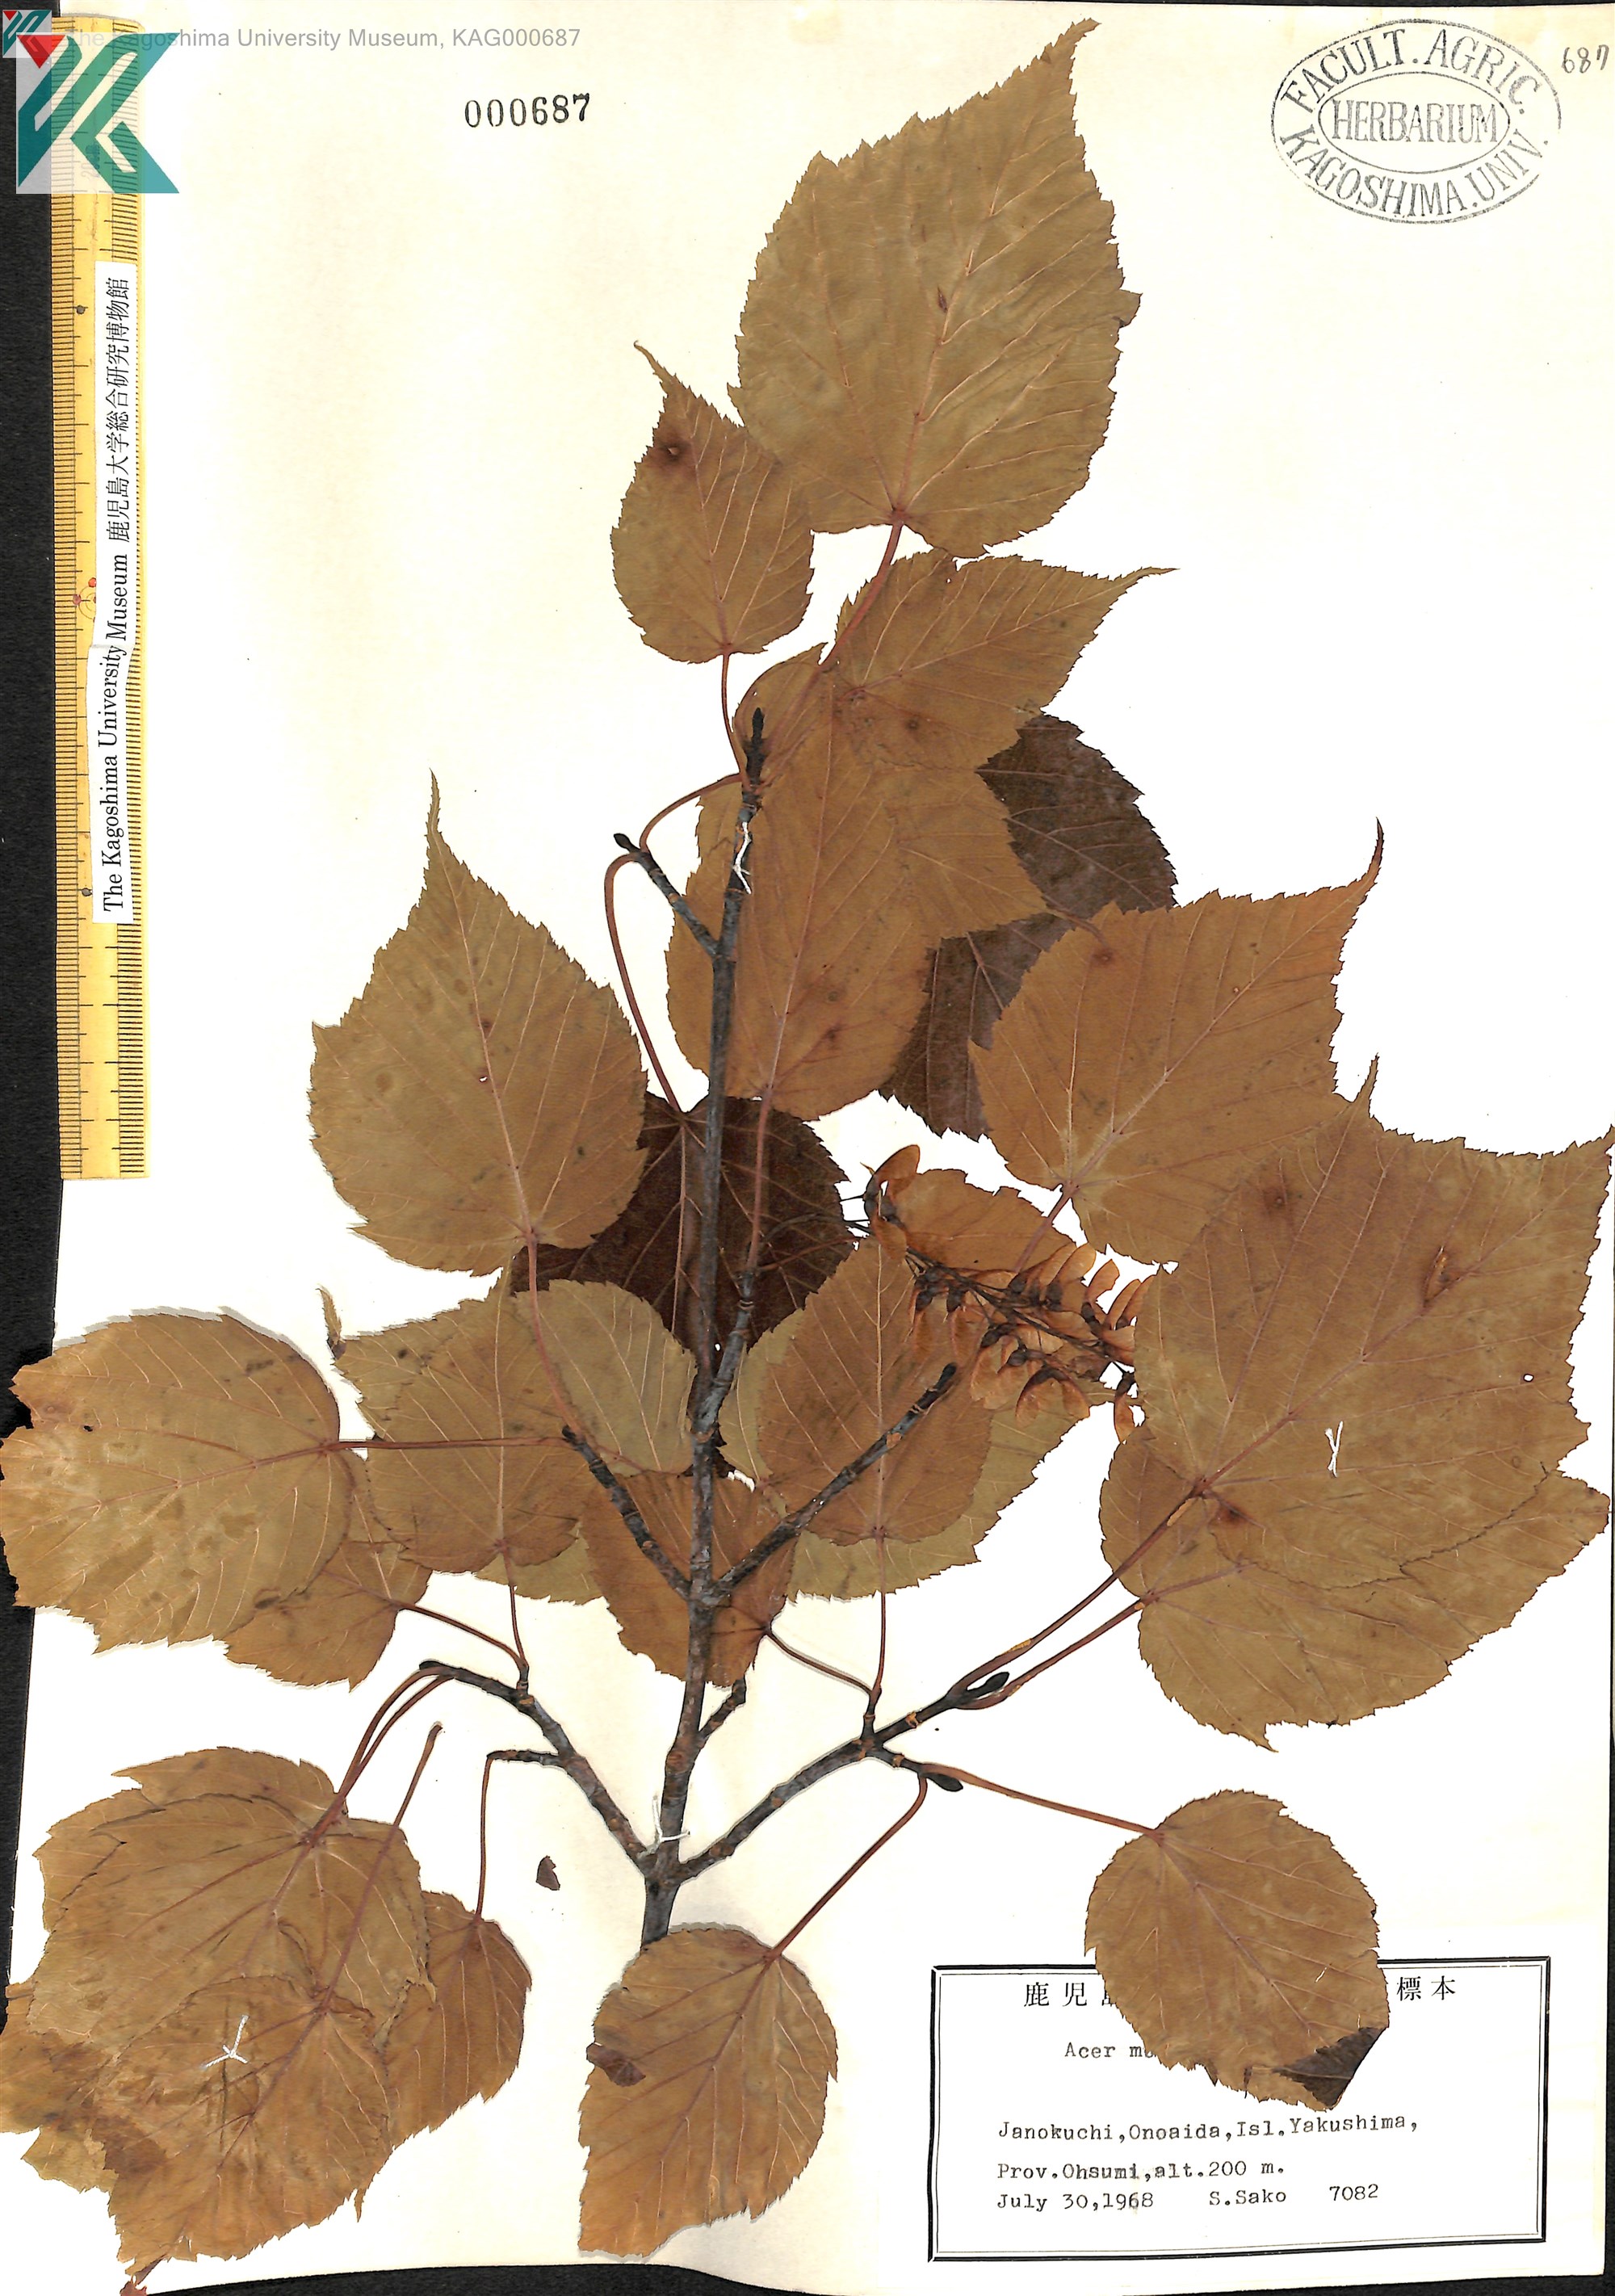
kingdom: Plantae
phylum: Tracheophyta
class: Magnoliopsida
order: Sapindales
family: Sapindaceae
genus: Acer
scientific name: Acer morifolium
